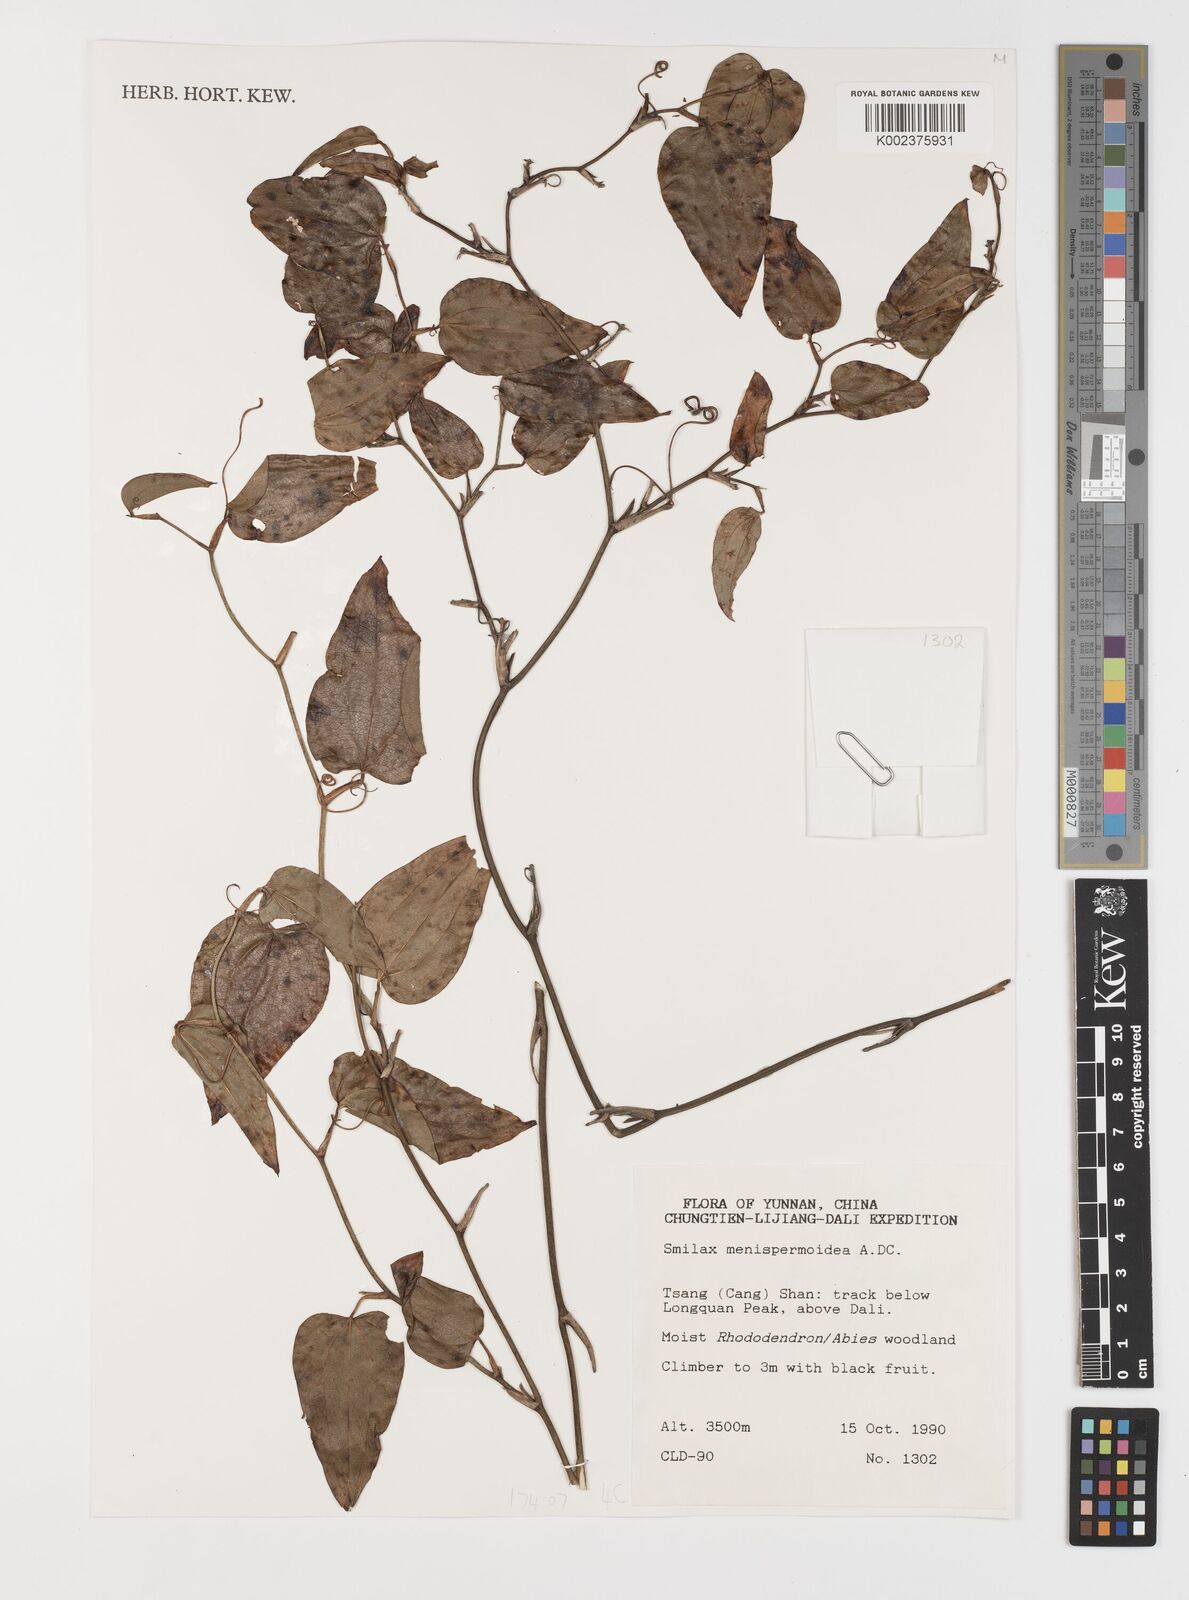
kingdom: Plantae
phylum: Tracheophyta
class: Liliopsida
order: Liliales
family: Smilacaceae
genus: Smilax
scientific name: Smilax menispermoidea
